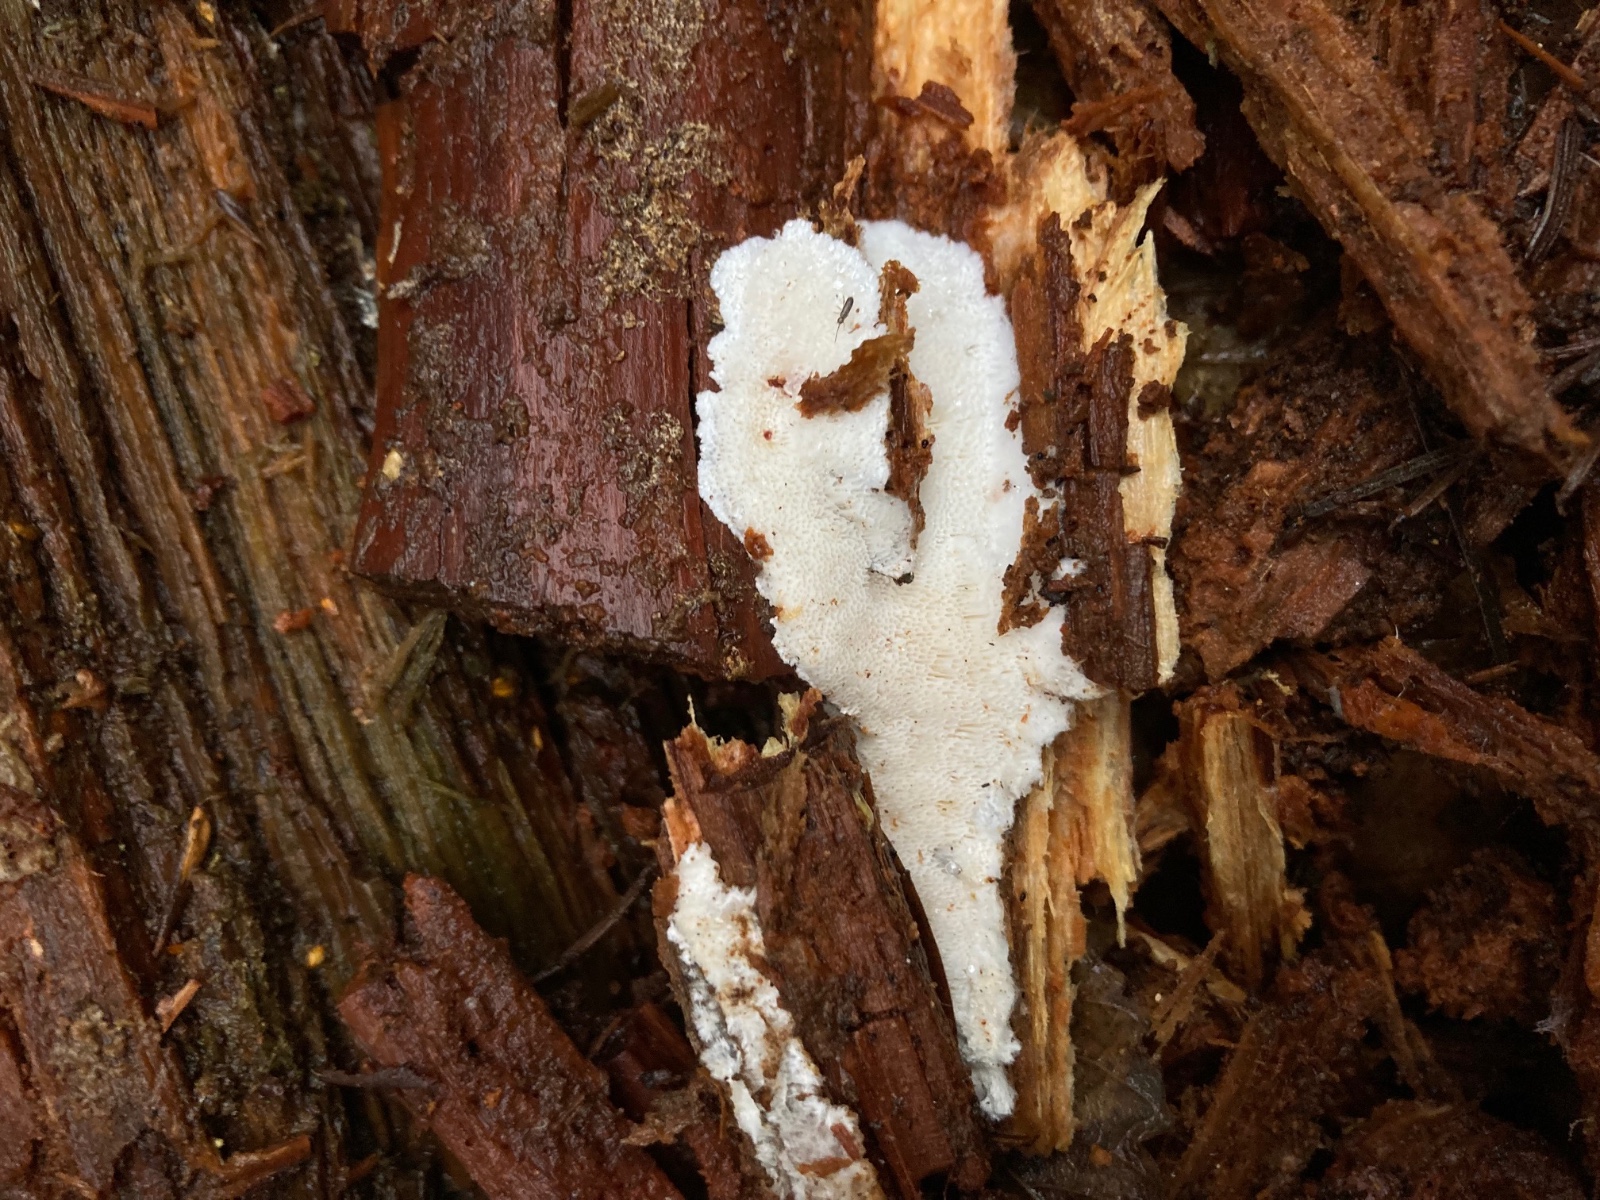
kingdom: Fungi
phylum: Basidiomycota
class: Agaricomycetes
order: Polyporales
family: Gelatoporiaceae
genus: Cinereomyces
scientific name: Cinereomyces lindbladii
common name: almindelig gråporesvamp
